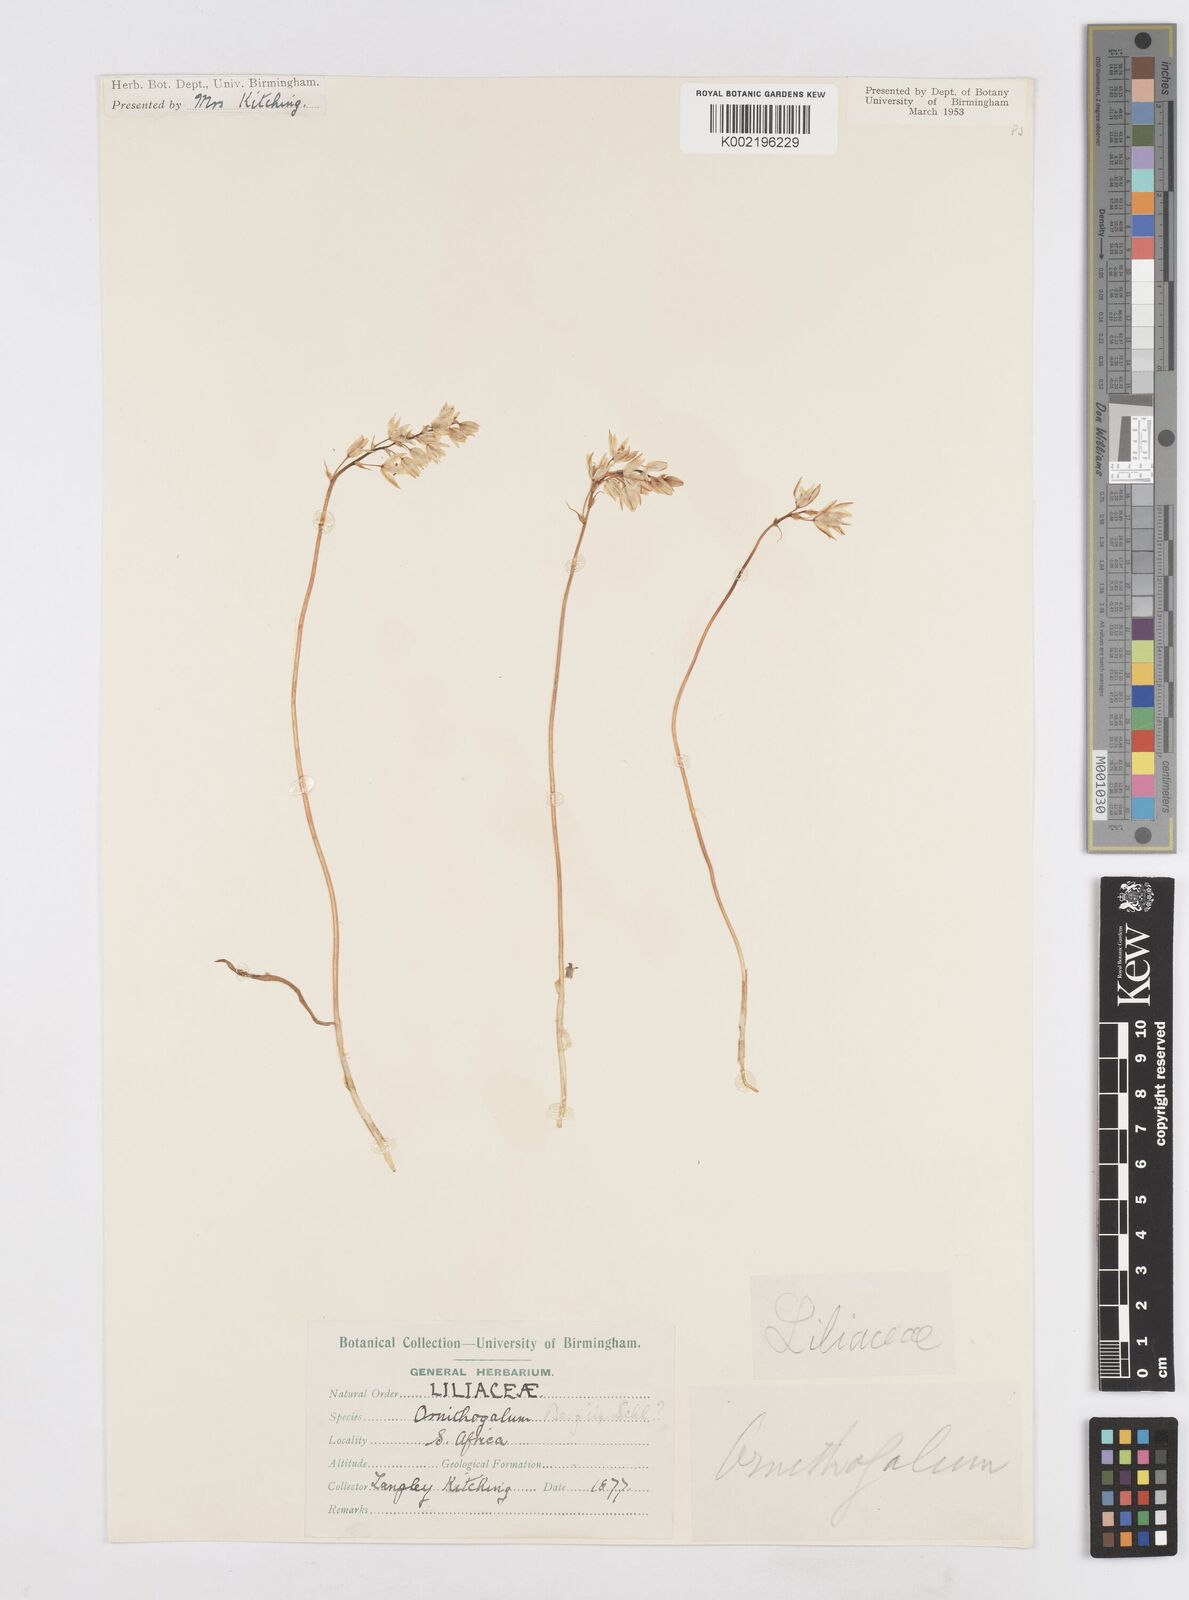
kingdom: Plantae
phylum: Tracheophyta
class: Liliopsida
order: Asparagales
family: Asparagaceae
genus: Ornithogalum
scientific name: Ornithogalum hispidum
